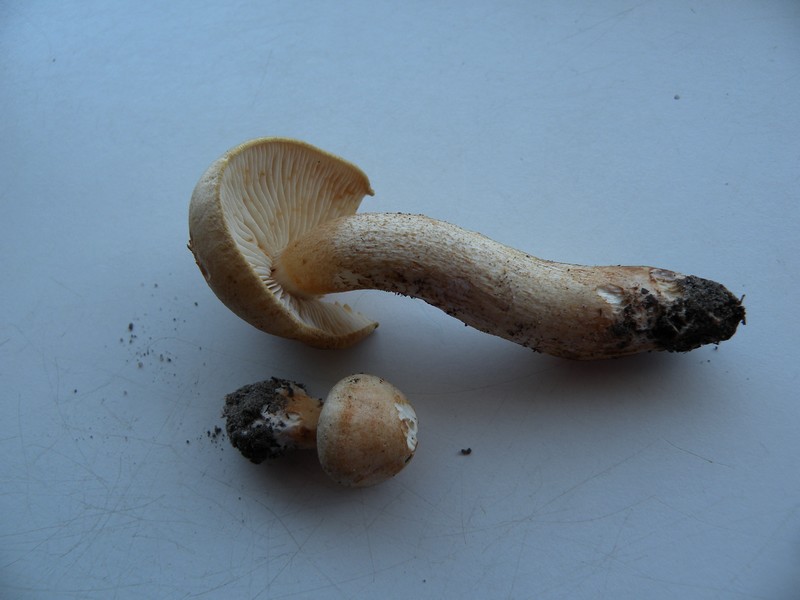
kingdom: Fungi
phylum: Basidiomycota
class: Agaricomycetes
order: Agaricales
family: Tricholomataceae
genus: Tricholoma
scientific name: Tricholoma psammopus
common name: grynstokket ridderhat
